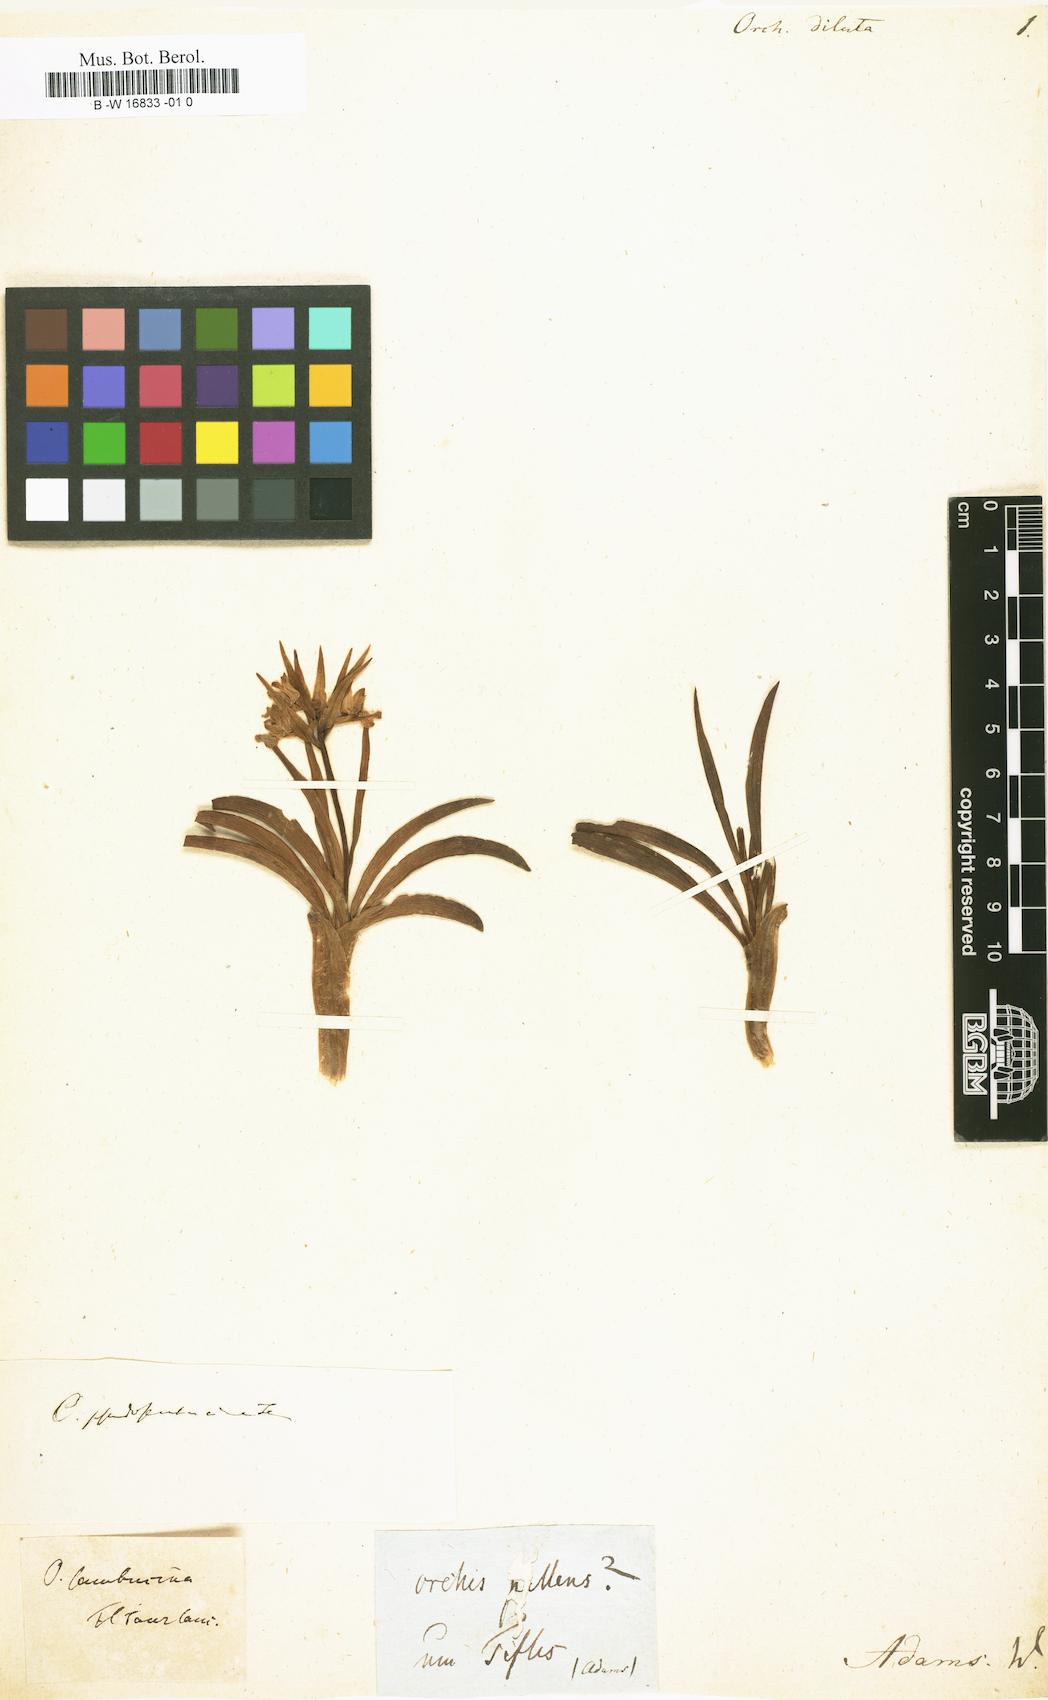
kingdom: Plantae
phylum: Tracheophyta
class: Liliopsida
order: Asparagales
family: Orchidaceae
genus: Orchis
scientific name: Orchis
